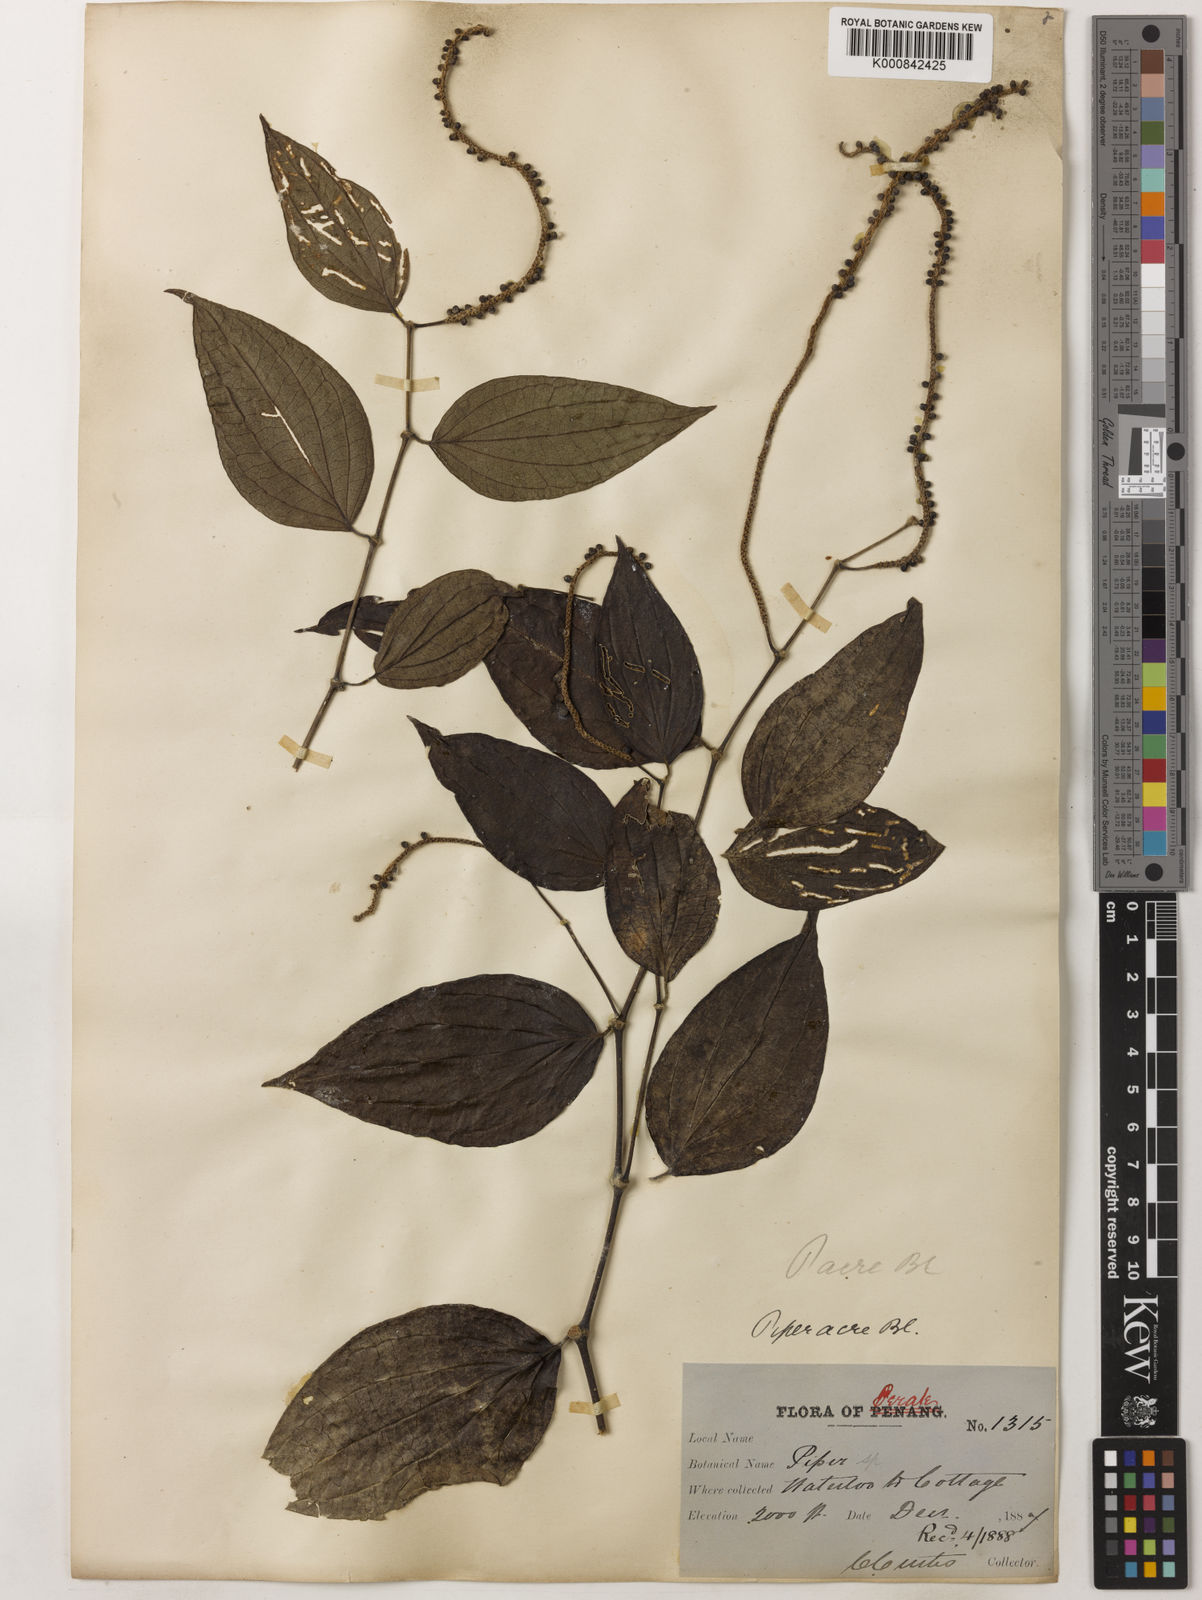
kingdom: Plantae
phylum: Tracheophyta
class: Magnoliopsida
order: Piperales
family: Piperaceae
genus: Piper
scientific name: Piper acre
